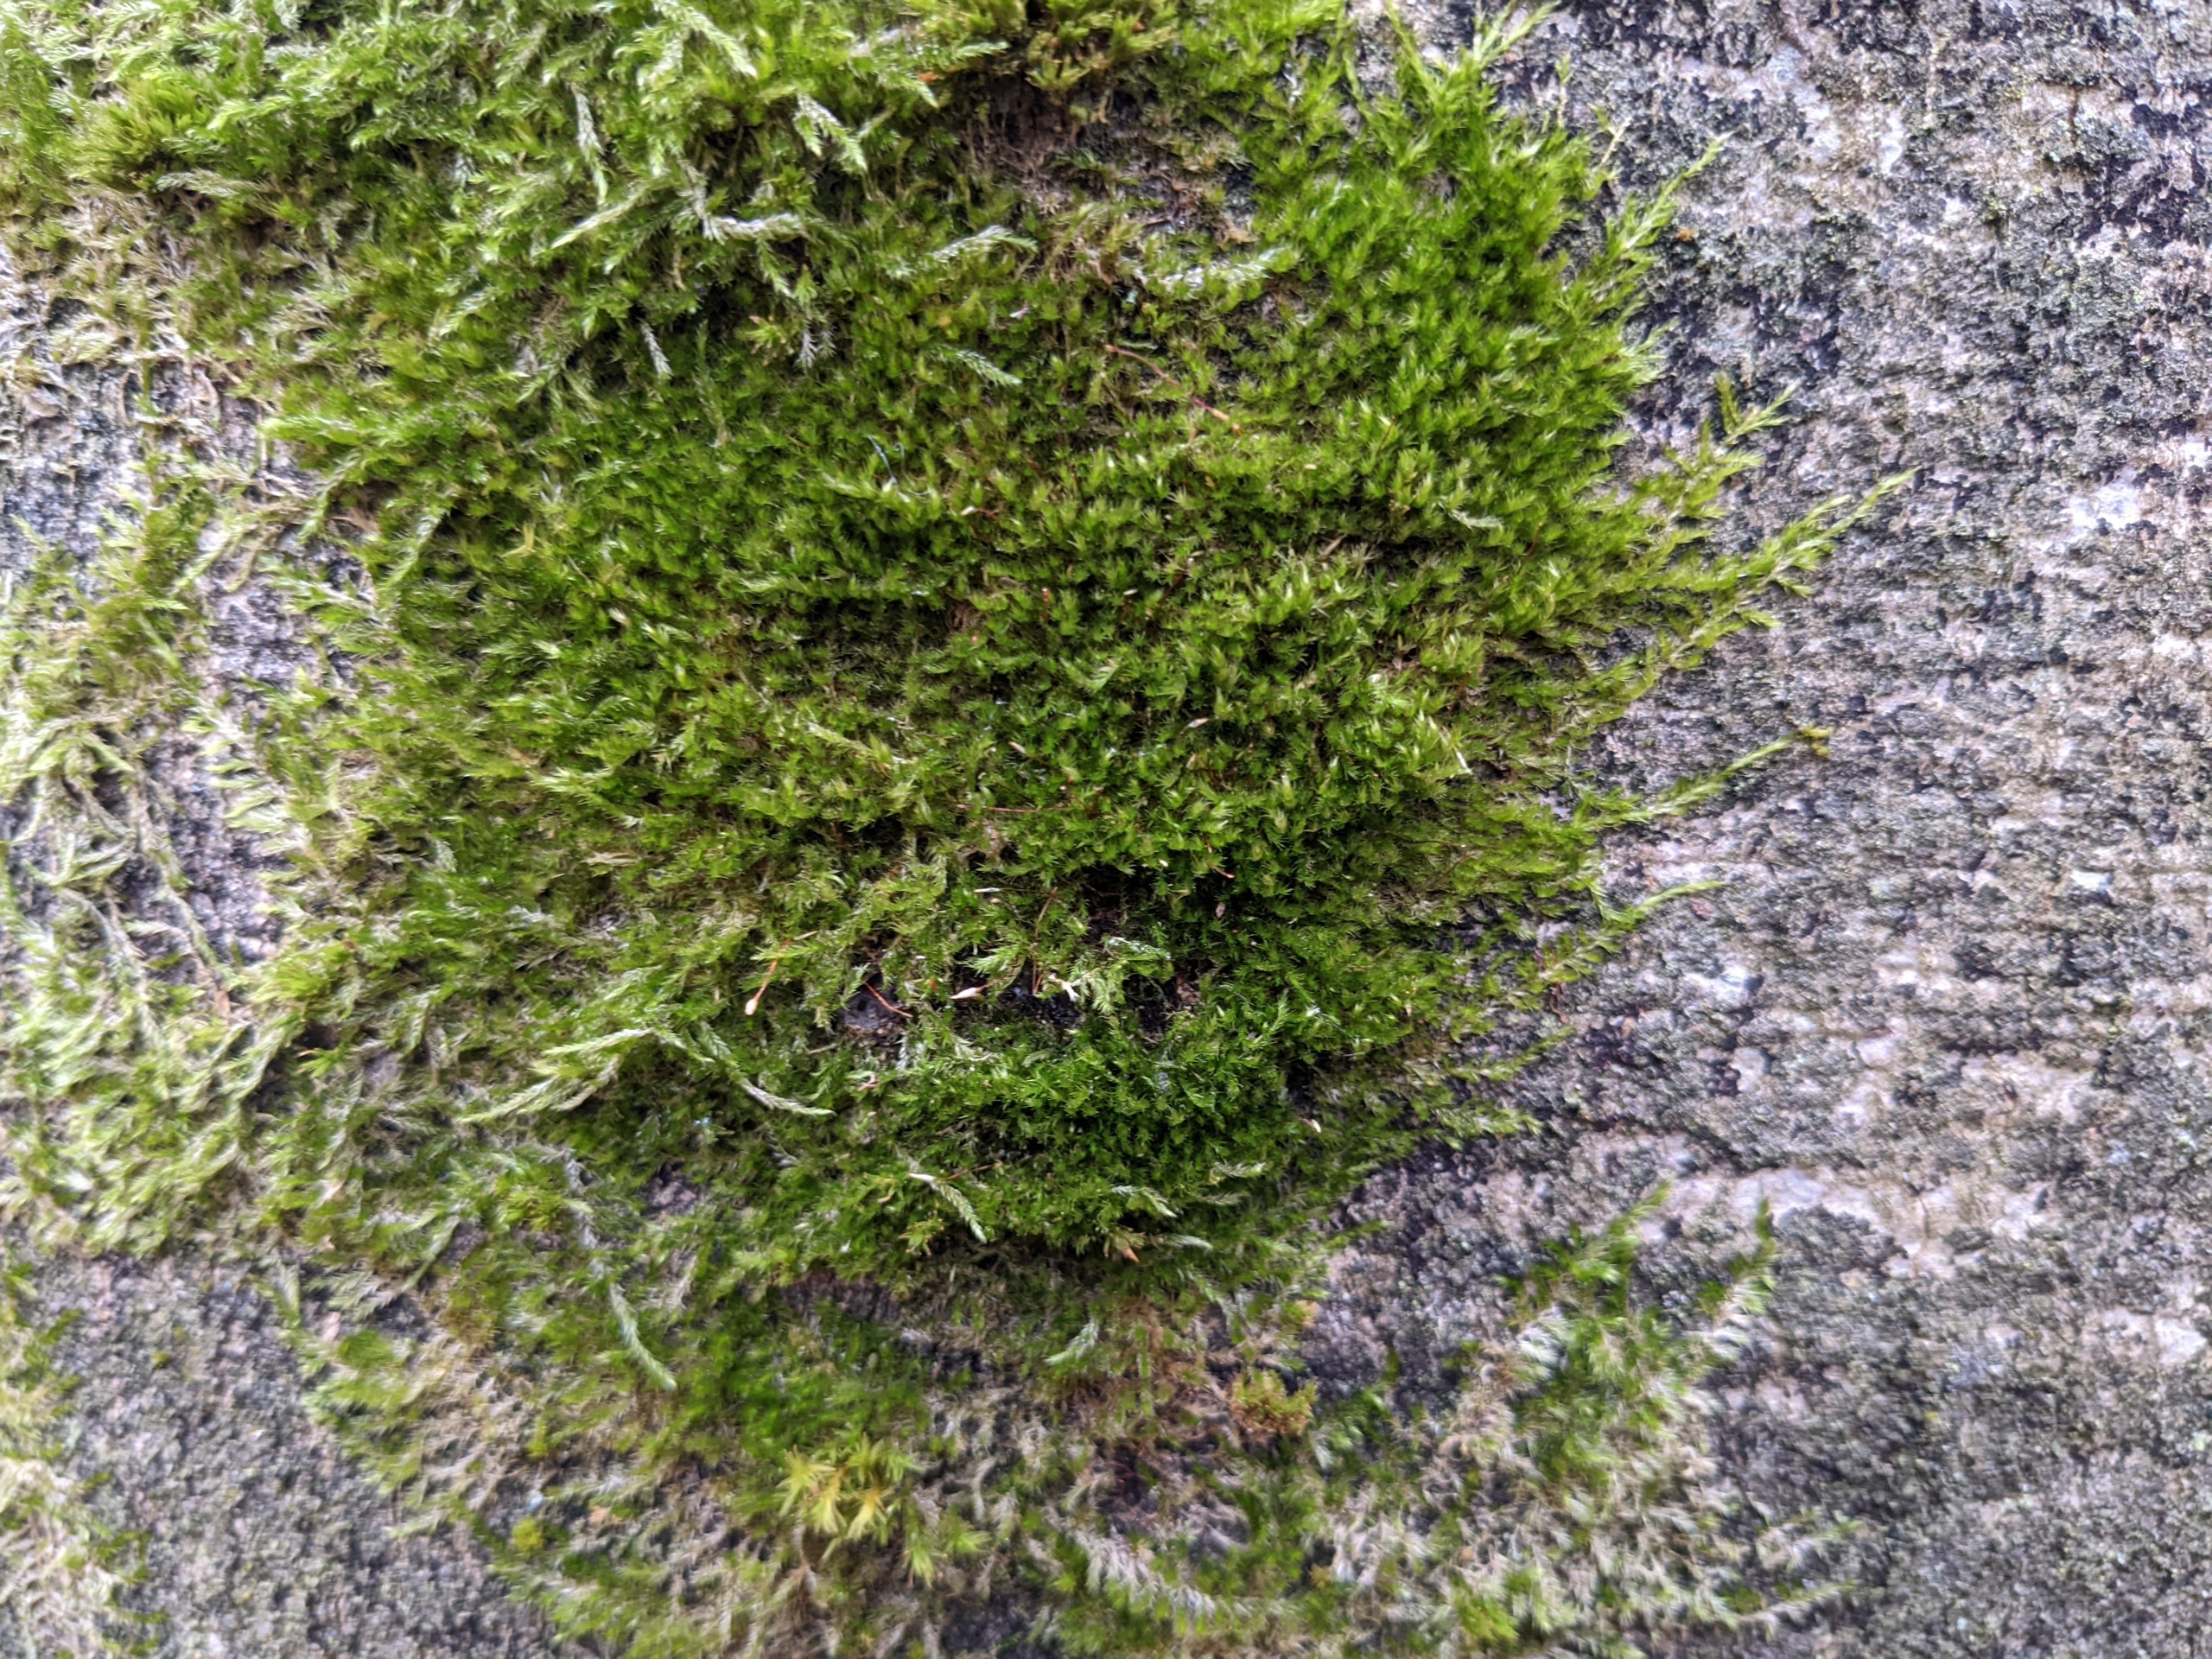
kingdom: Plantae
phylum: Bryophyta
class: Bryopsida
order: Hypnales
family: Pylaisiaceae
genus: Pylaisia
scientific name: Pylaisia polyantha
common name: Mangefrugtet aspemos
